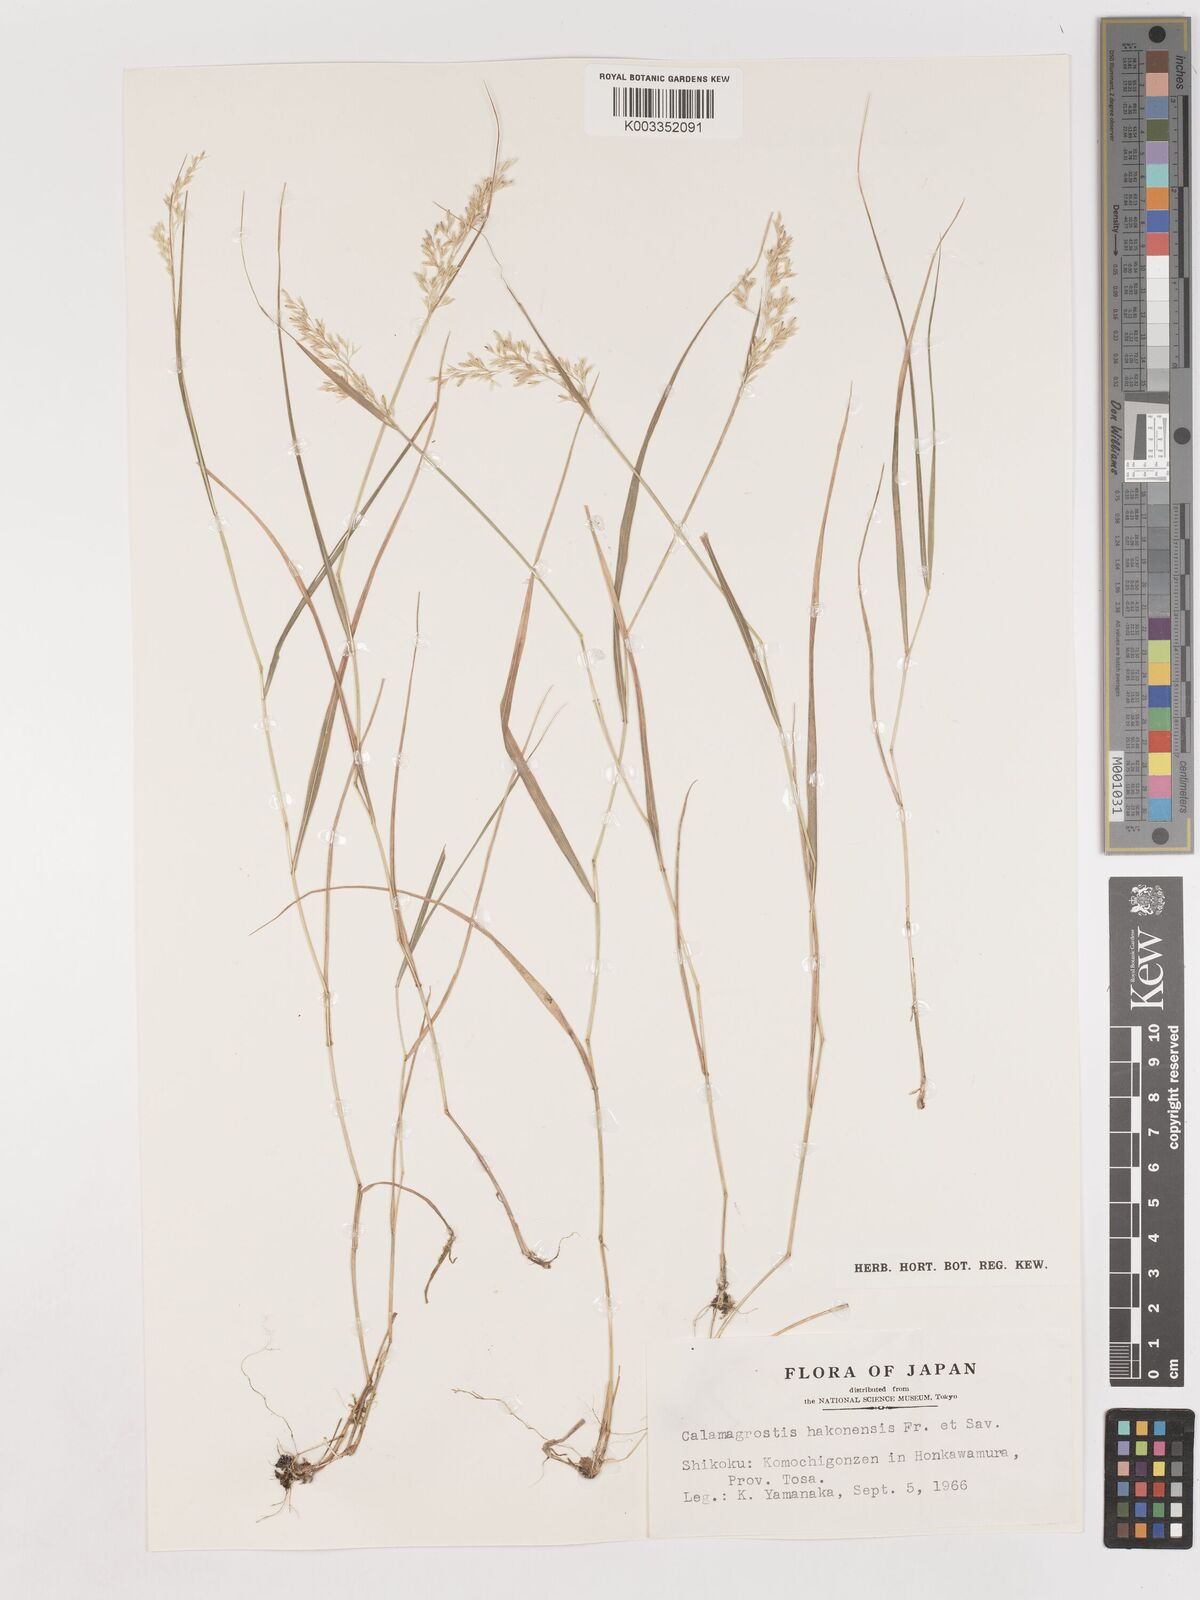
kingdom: Plantae
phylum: Tracheophyta
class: Liliopsida
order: Poales
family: Poaceae
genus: Calamagrostis
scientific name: Calamagrostis hakonensis
